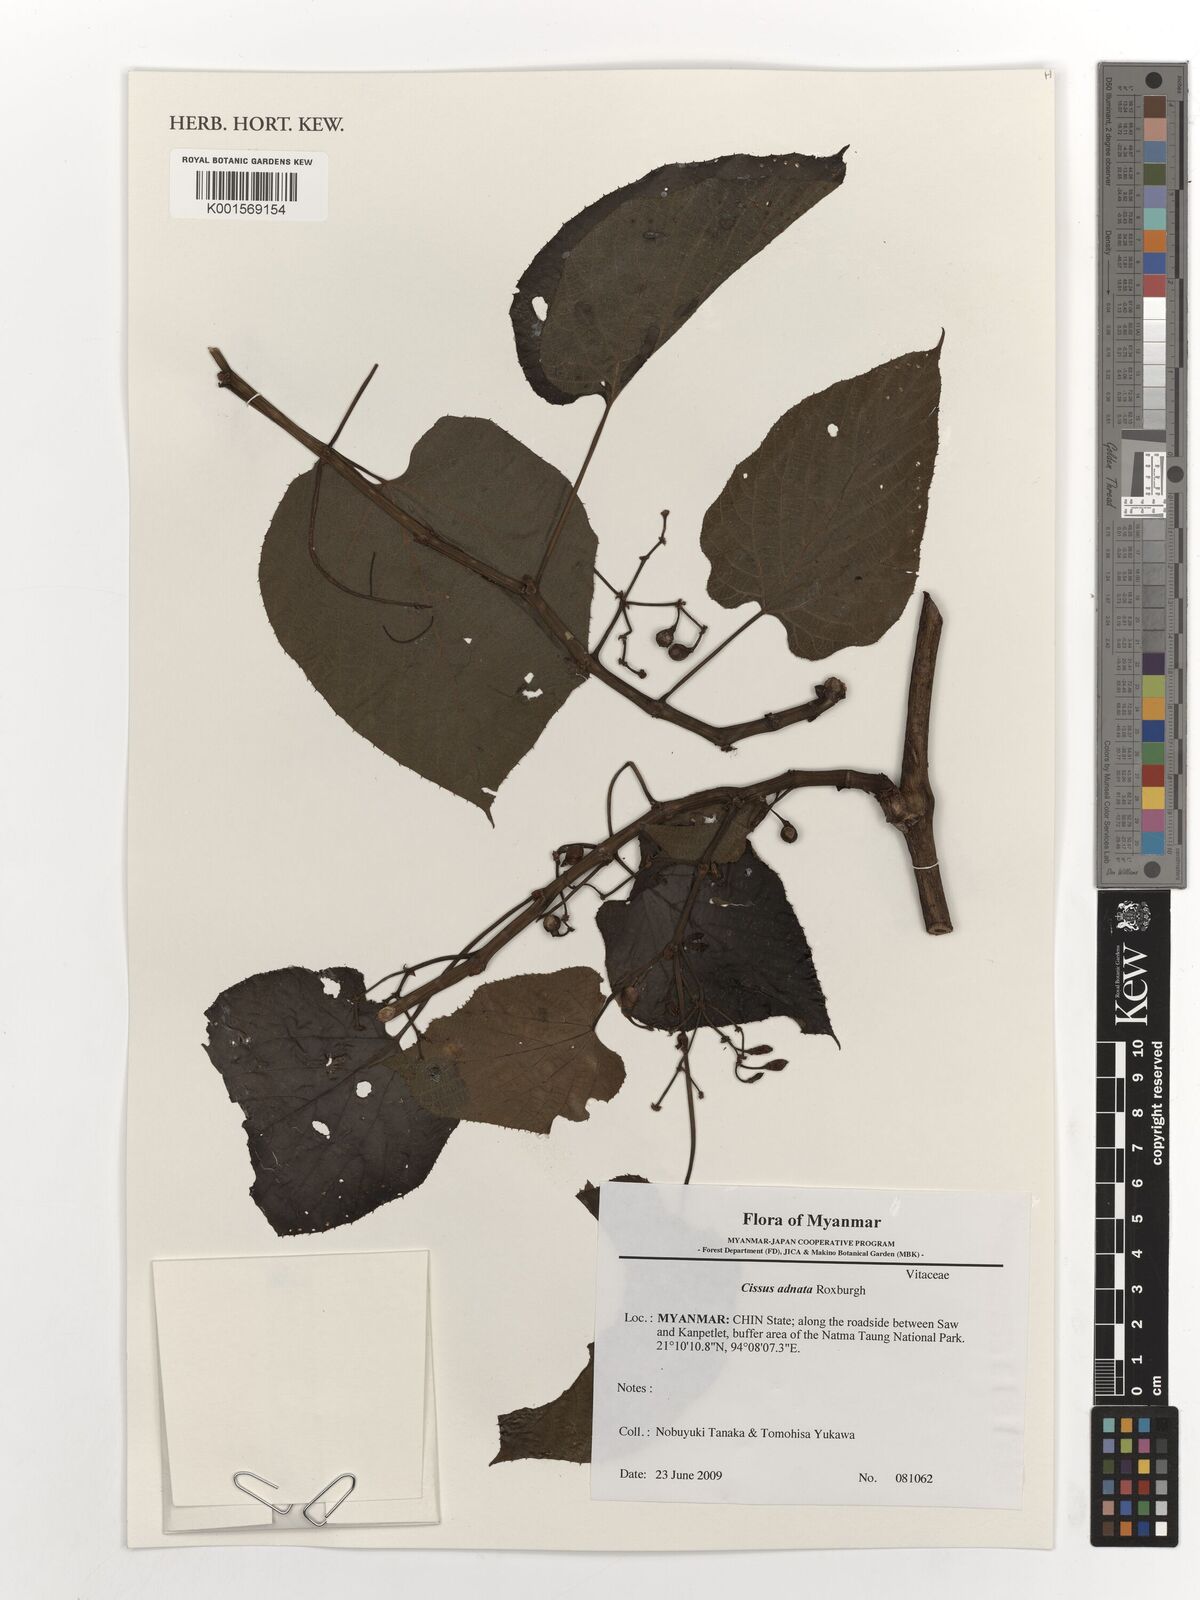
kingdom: Plantae
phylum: Tracheophyta
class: Magnoliopsida
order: Vitales
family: Vitaceae
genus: Cissus
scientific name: Cissus adnata
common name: Heart-leaf-grape
